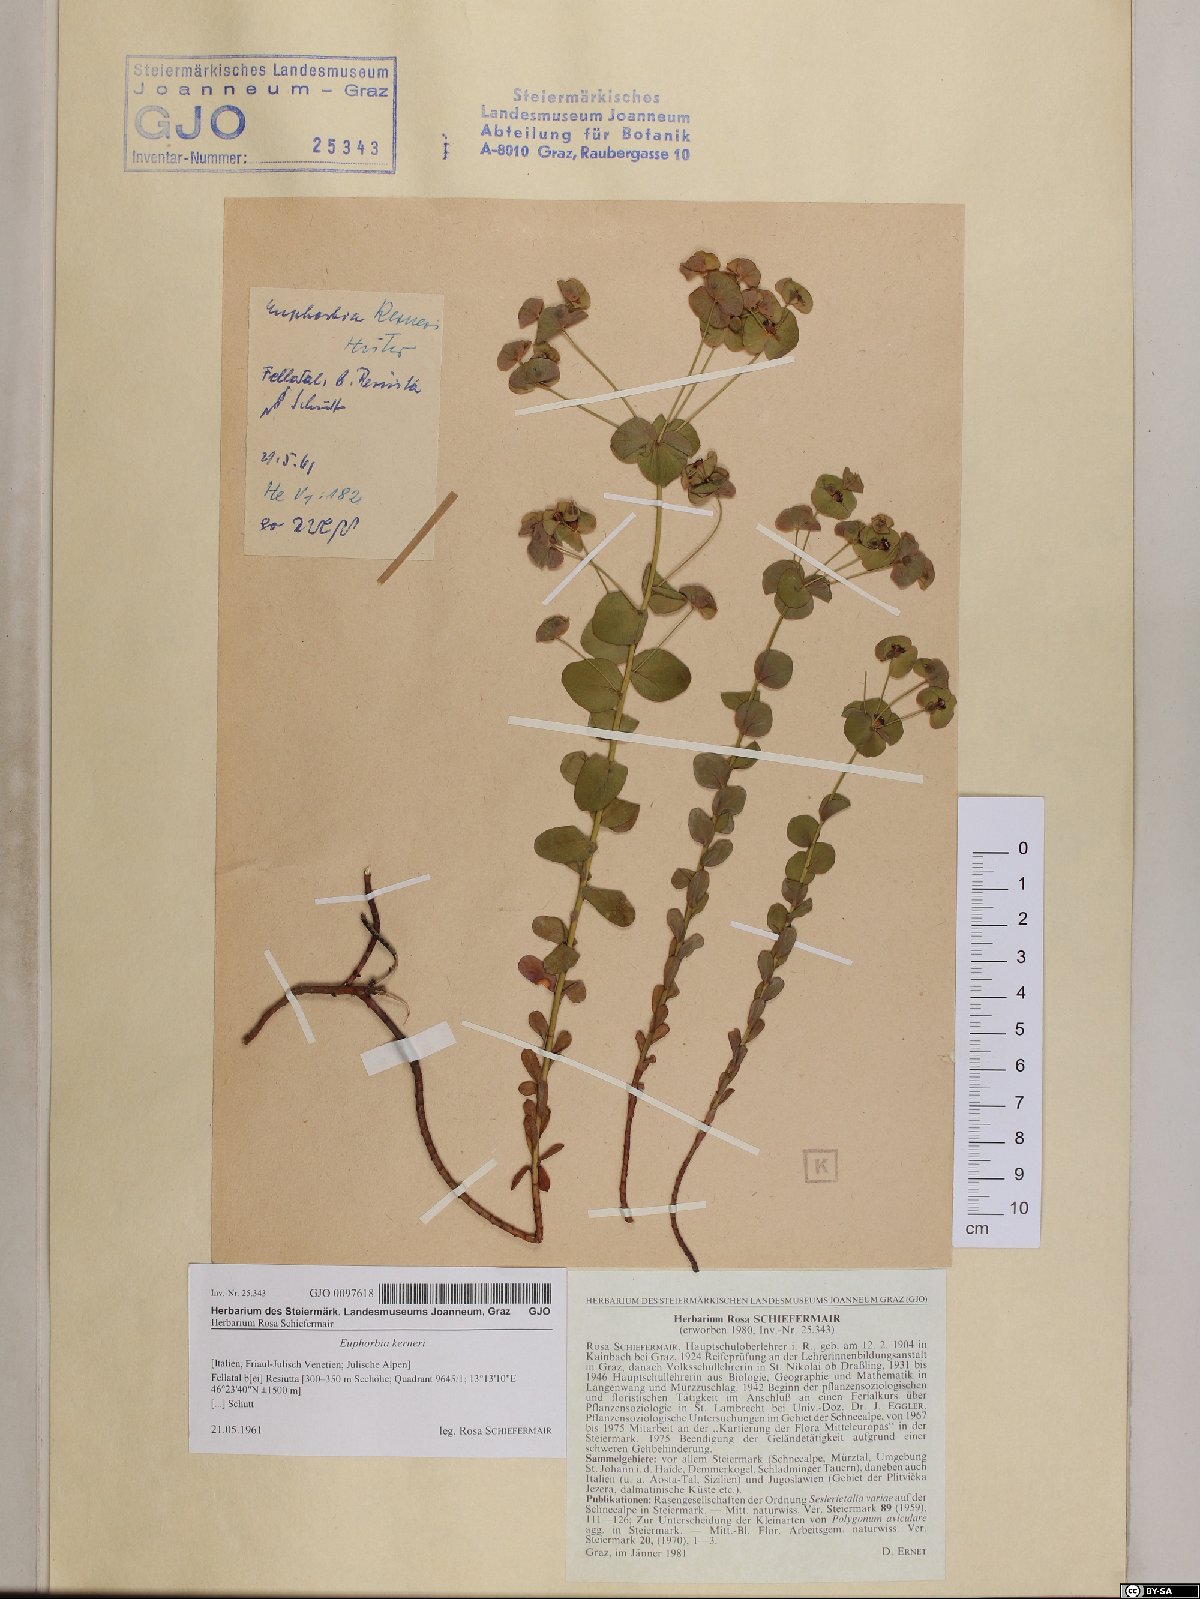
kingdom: Plantae
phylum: Tracheophyta
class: Magnoliopsida
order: Malpighiales
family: Euphorbiaceae
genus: Euphorbia
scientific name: Euphorbia kerneri
